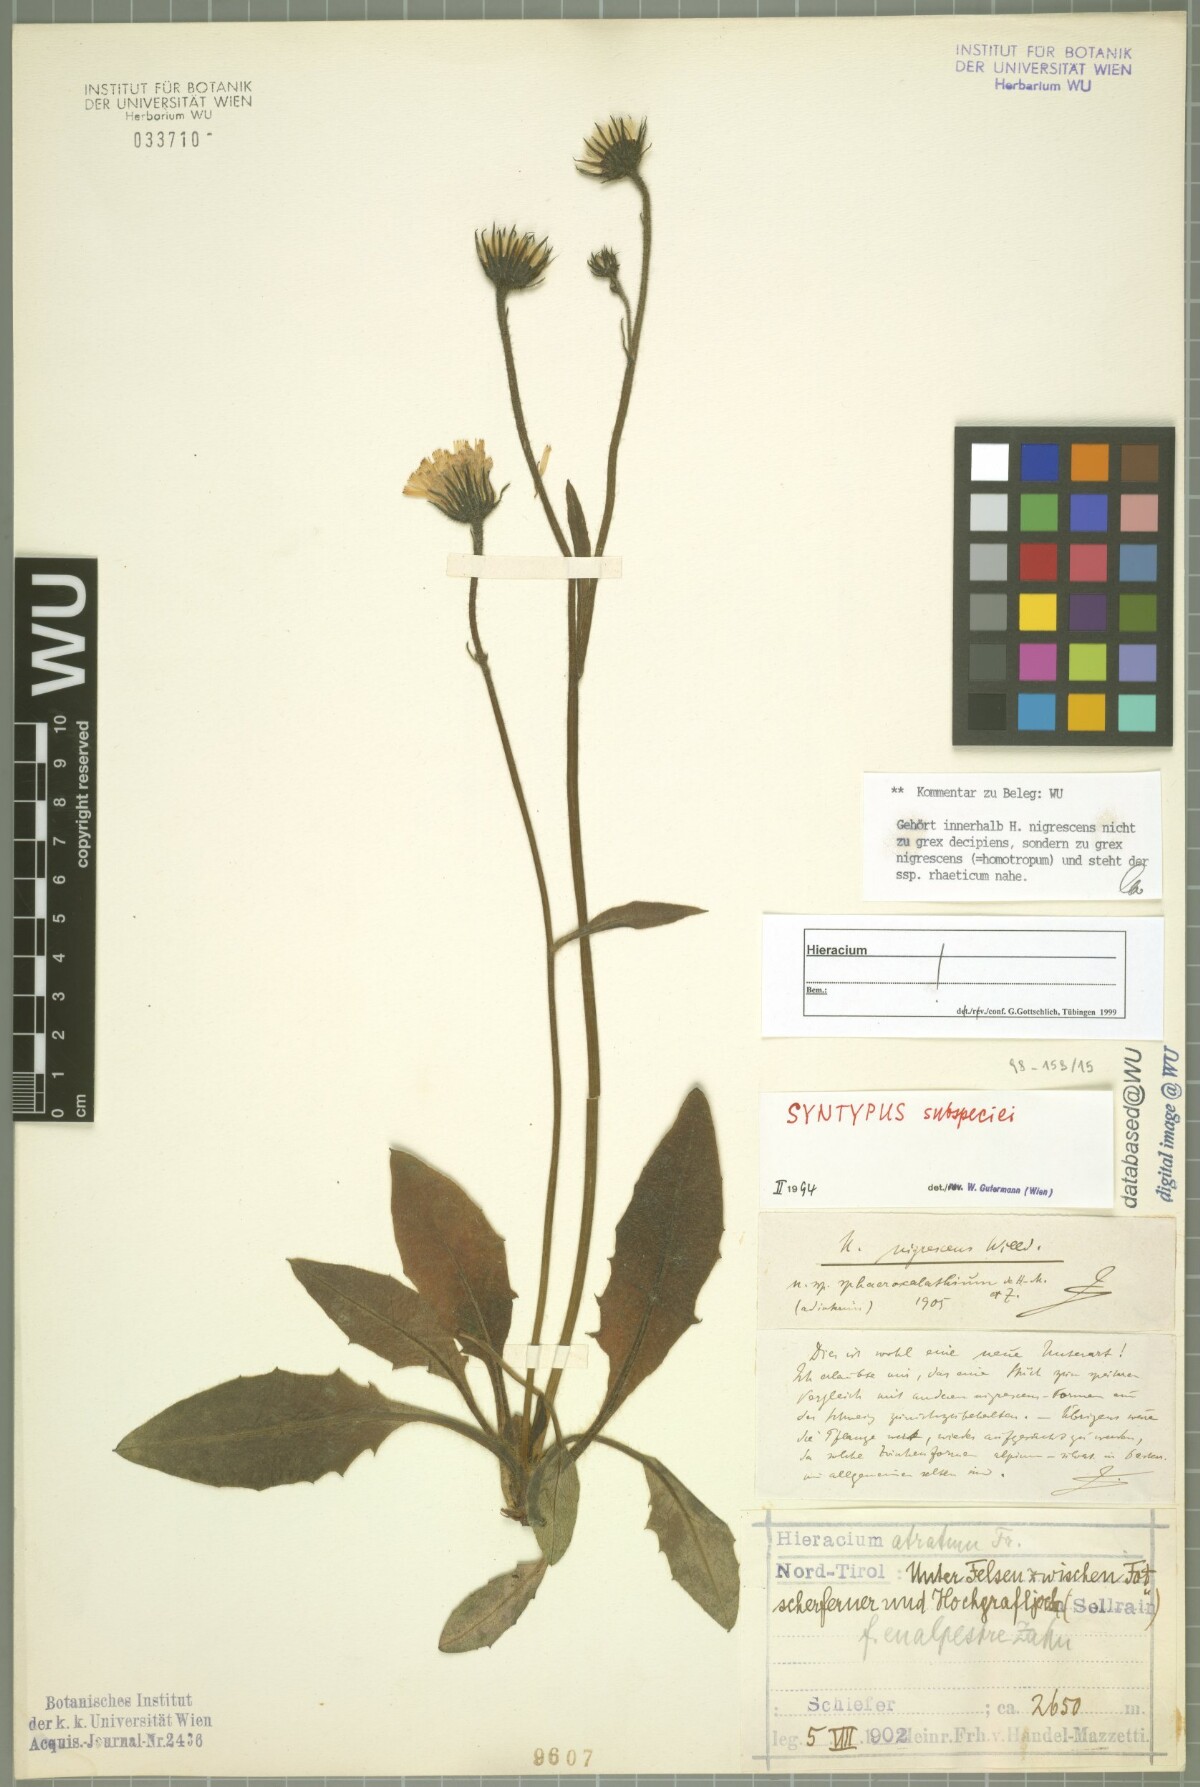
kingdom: Plantae
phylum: Tracheophyta
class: Magnoliopsida
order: Asterales
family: Asteraceae
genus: Hieracium
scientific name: Hieracium nigrescens
